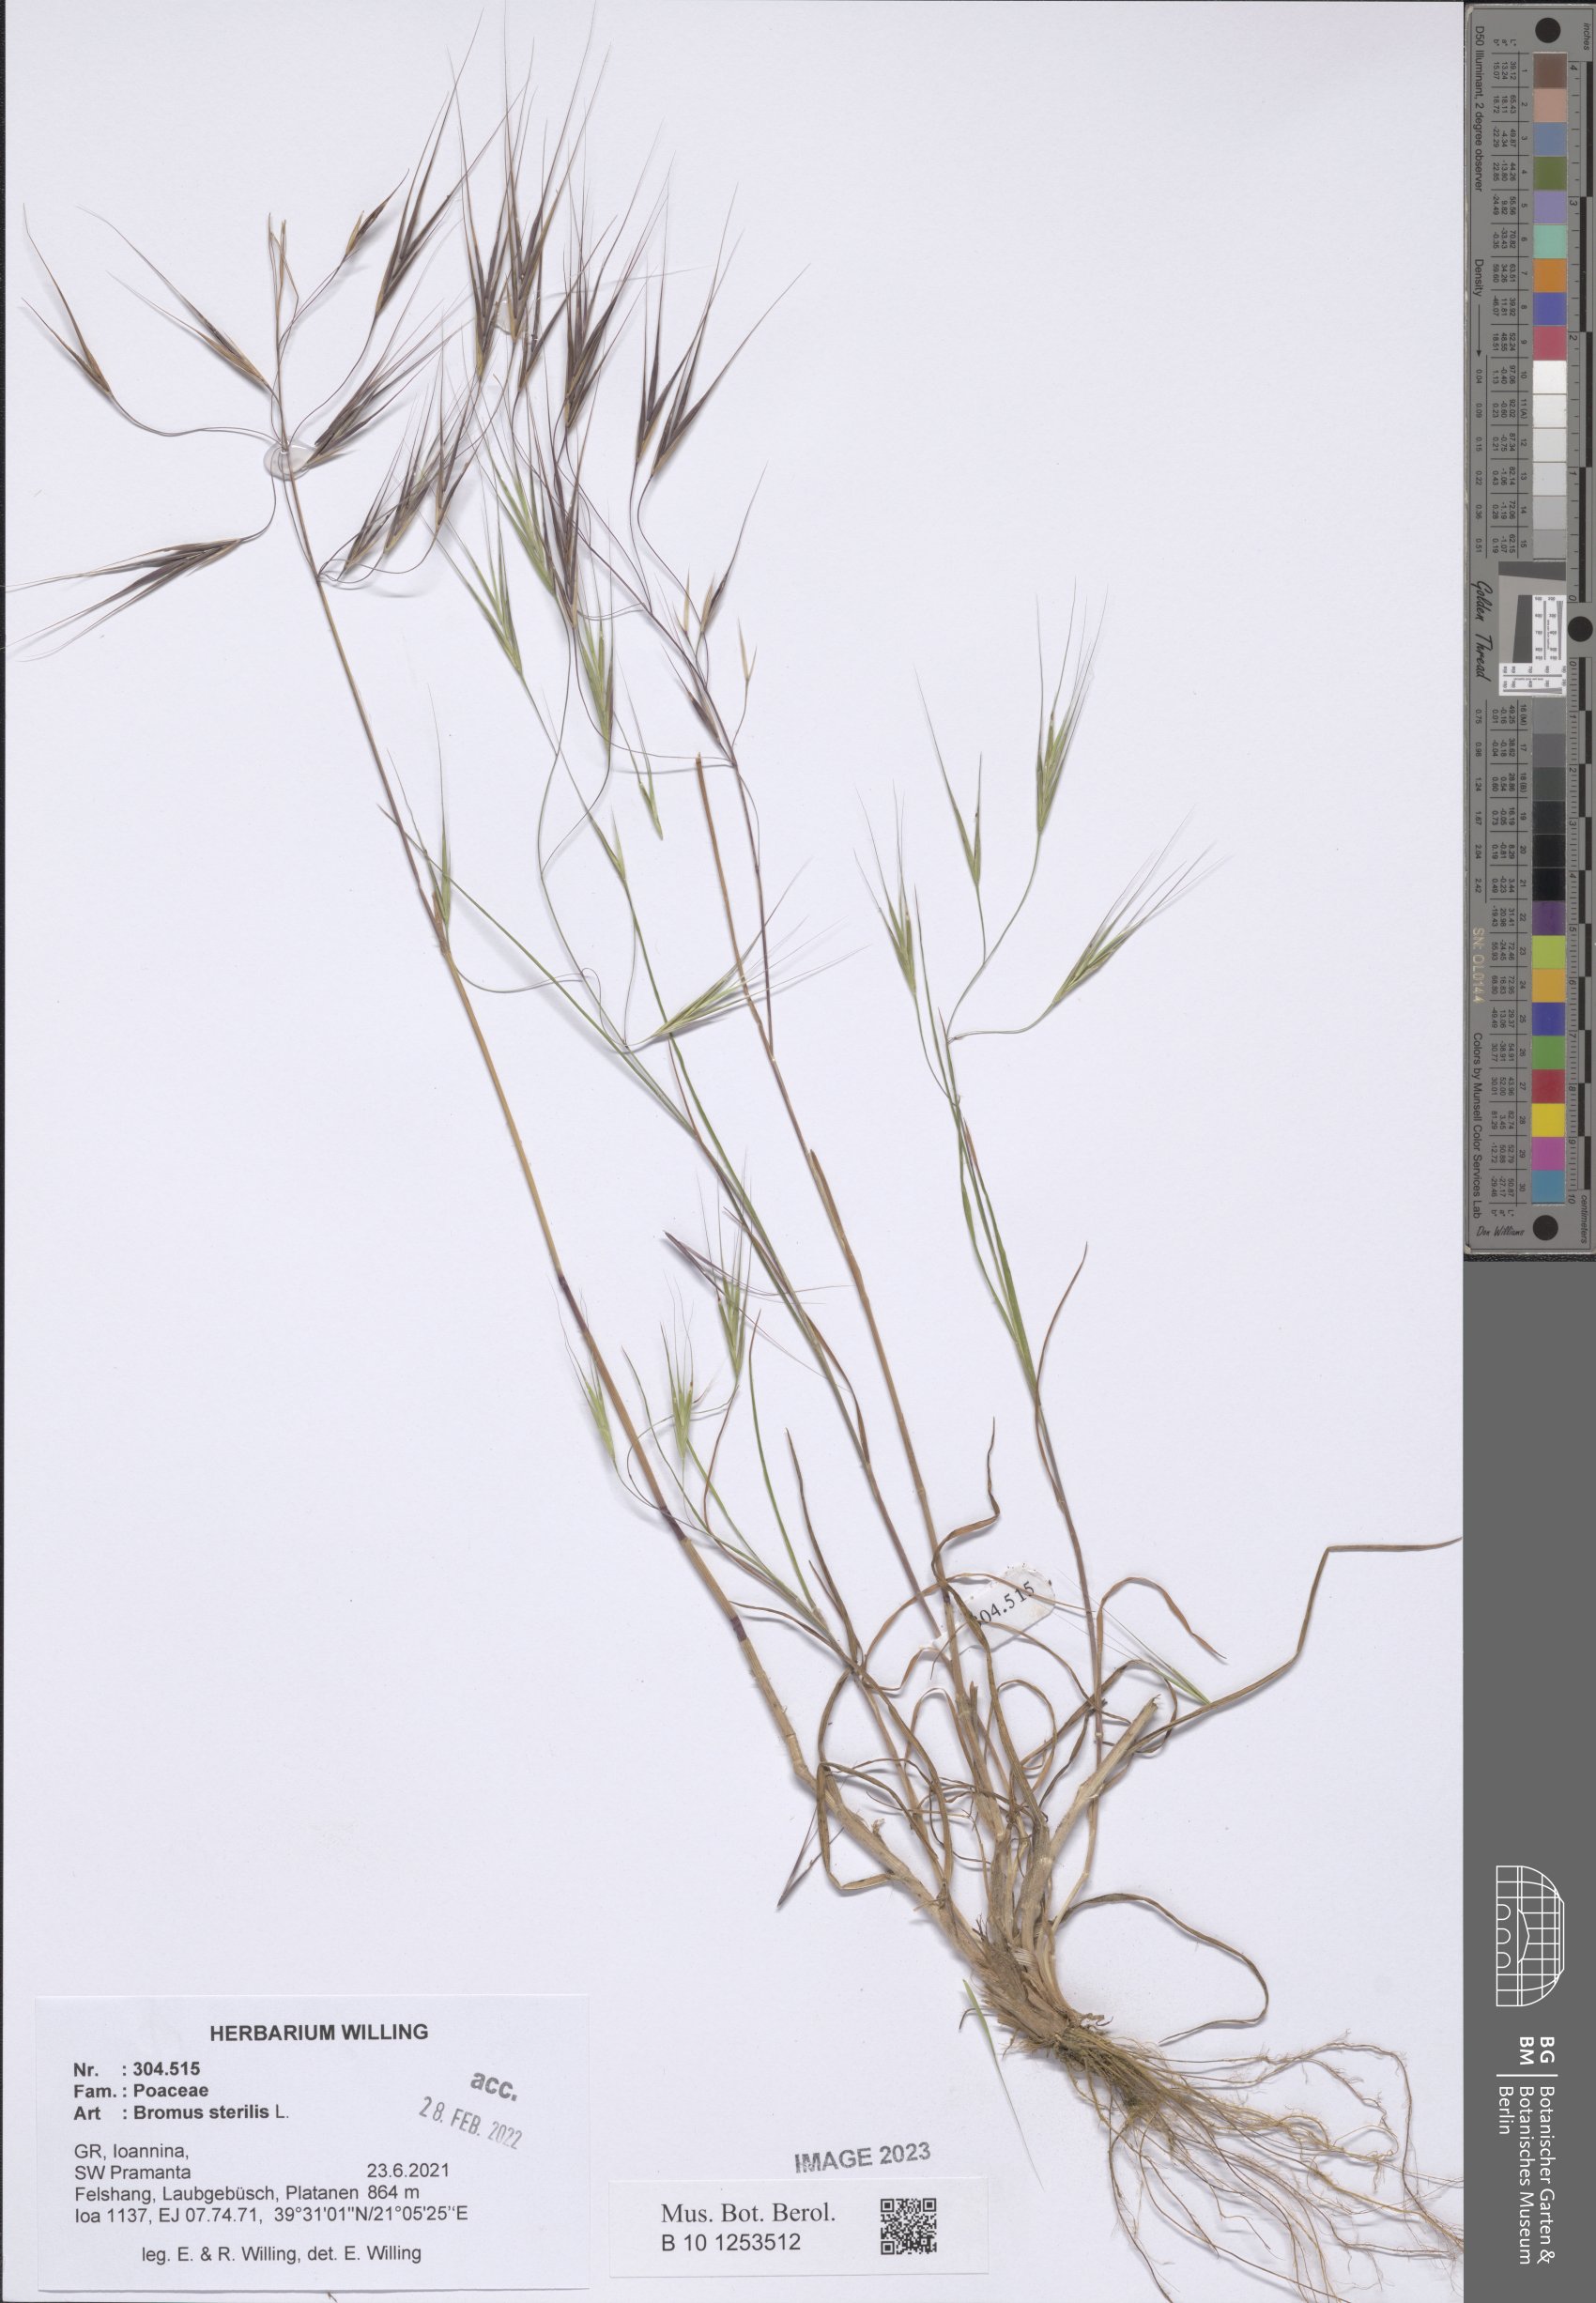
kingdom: Plantae
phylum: Tracheophyta
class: Liliopsida
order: Poales
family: Poaceae
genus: Bromus
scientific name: Bromus sterilis
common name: Poverty brome
